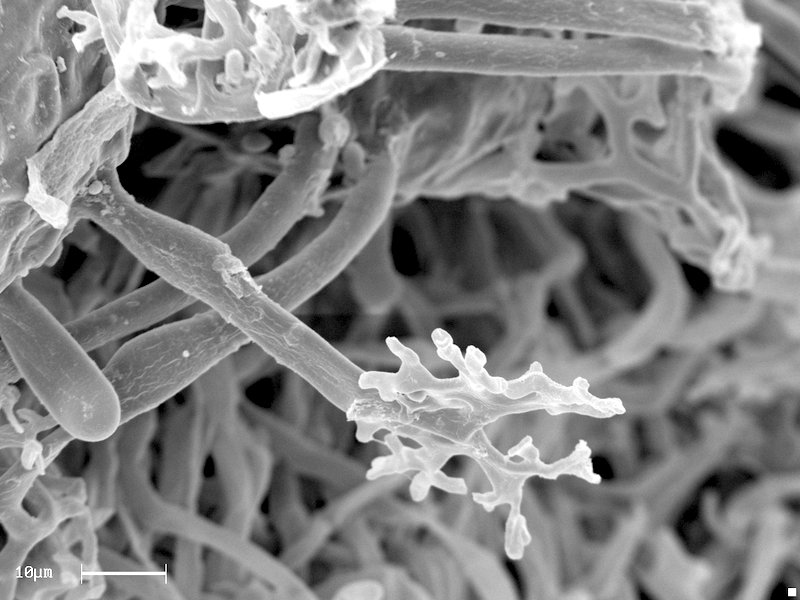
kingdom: Fungi
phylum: Ascomycota
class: Leotiomycetes
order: Helotiales
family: Erysiphaceae
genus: Erysiphe
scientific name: Erysiphe berberidis
